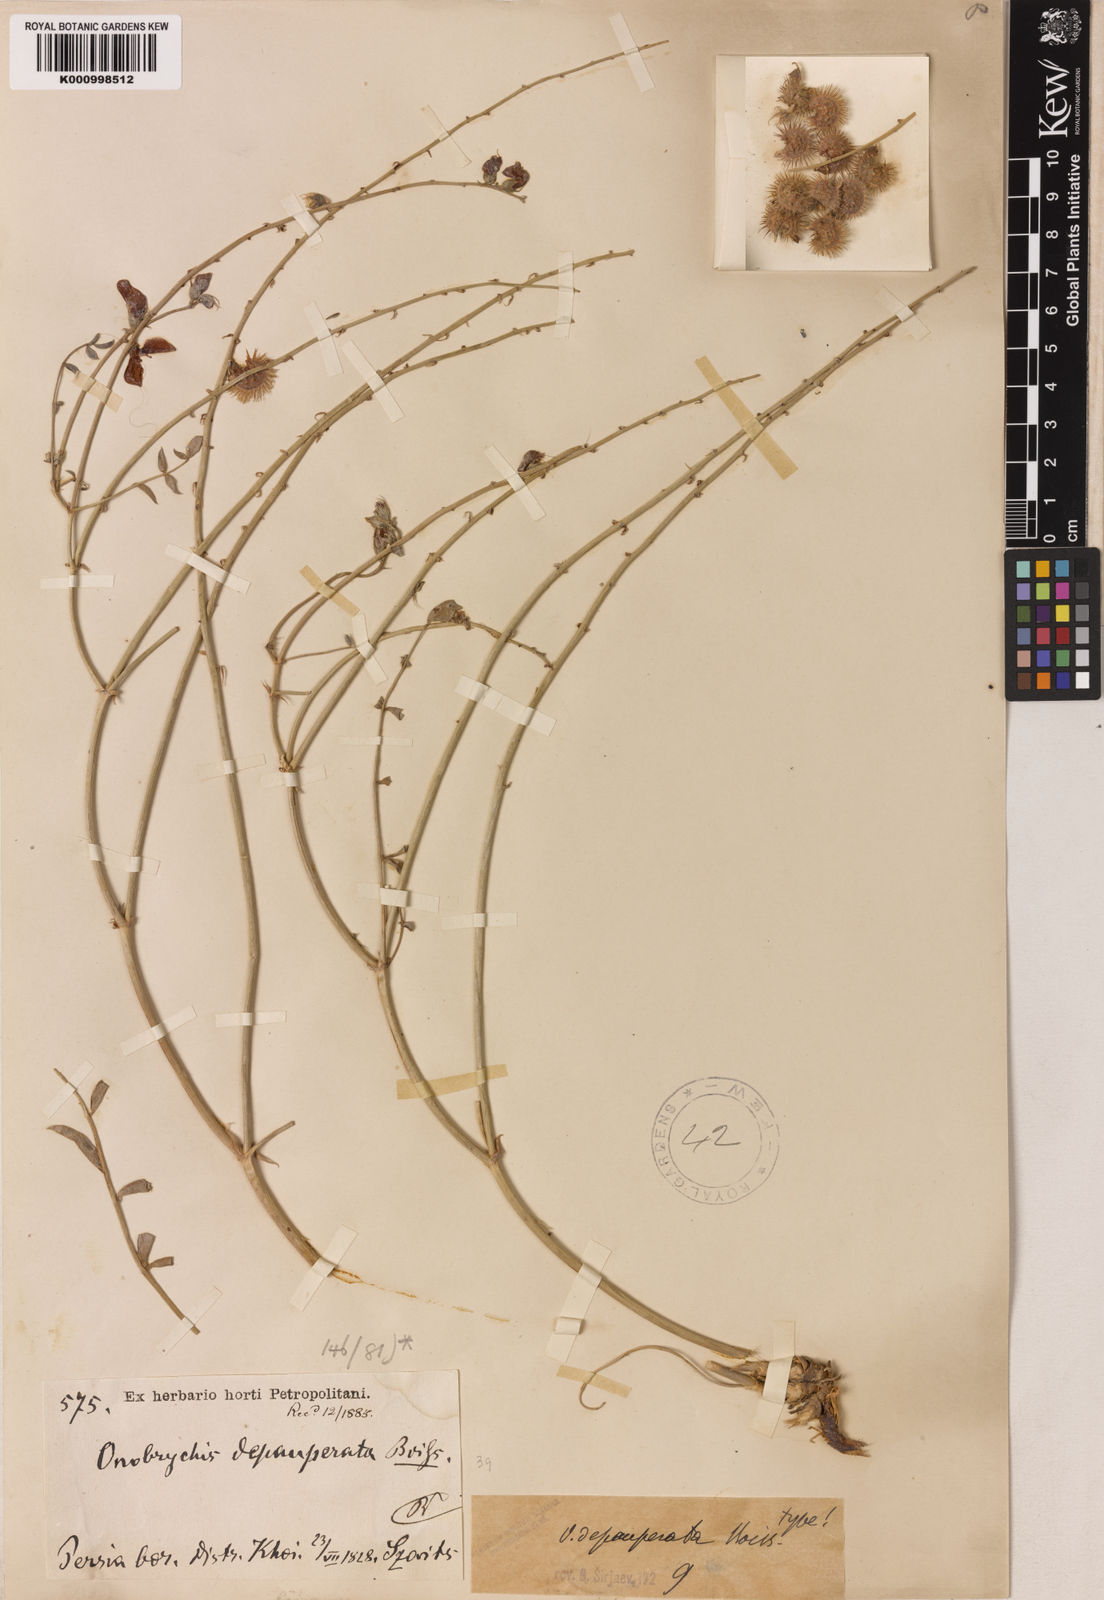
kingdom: Plantae
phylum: Tracheophyta
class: Magnoliopsida
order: Fabales
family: Fabaceae
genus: Onobrychis
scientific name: Onobrychis depauperata
